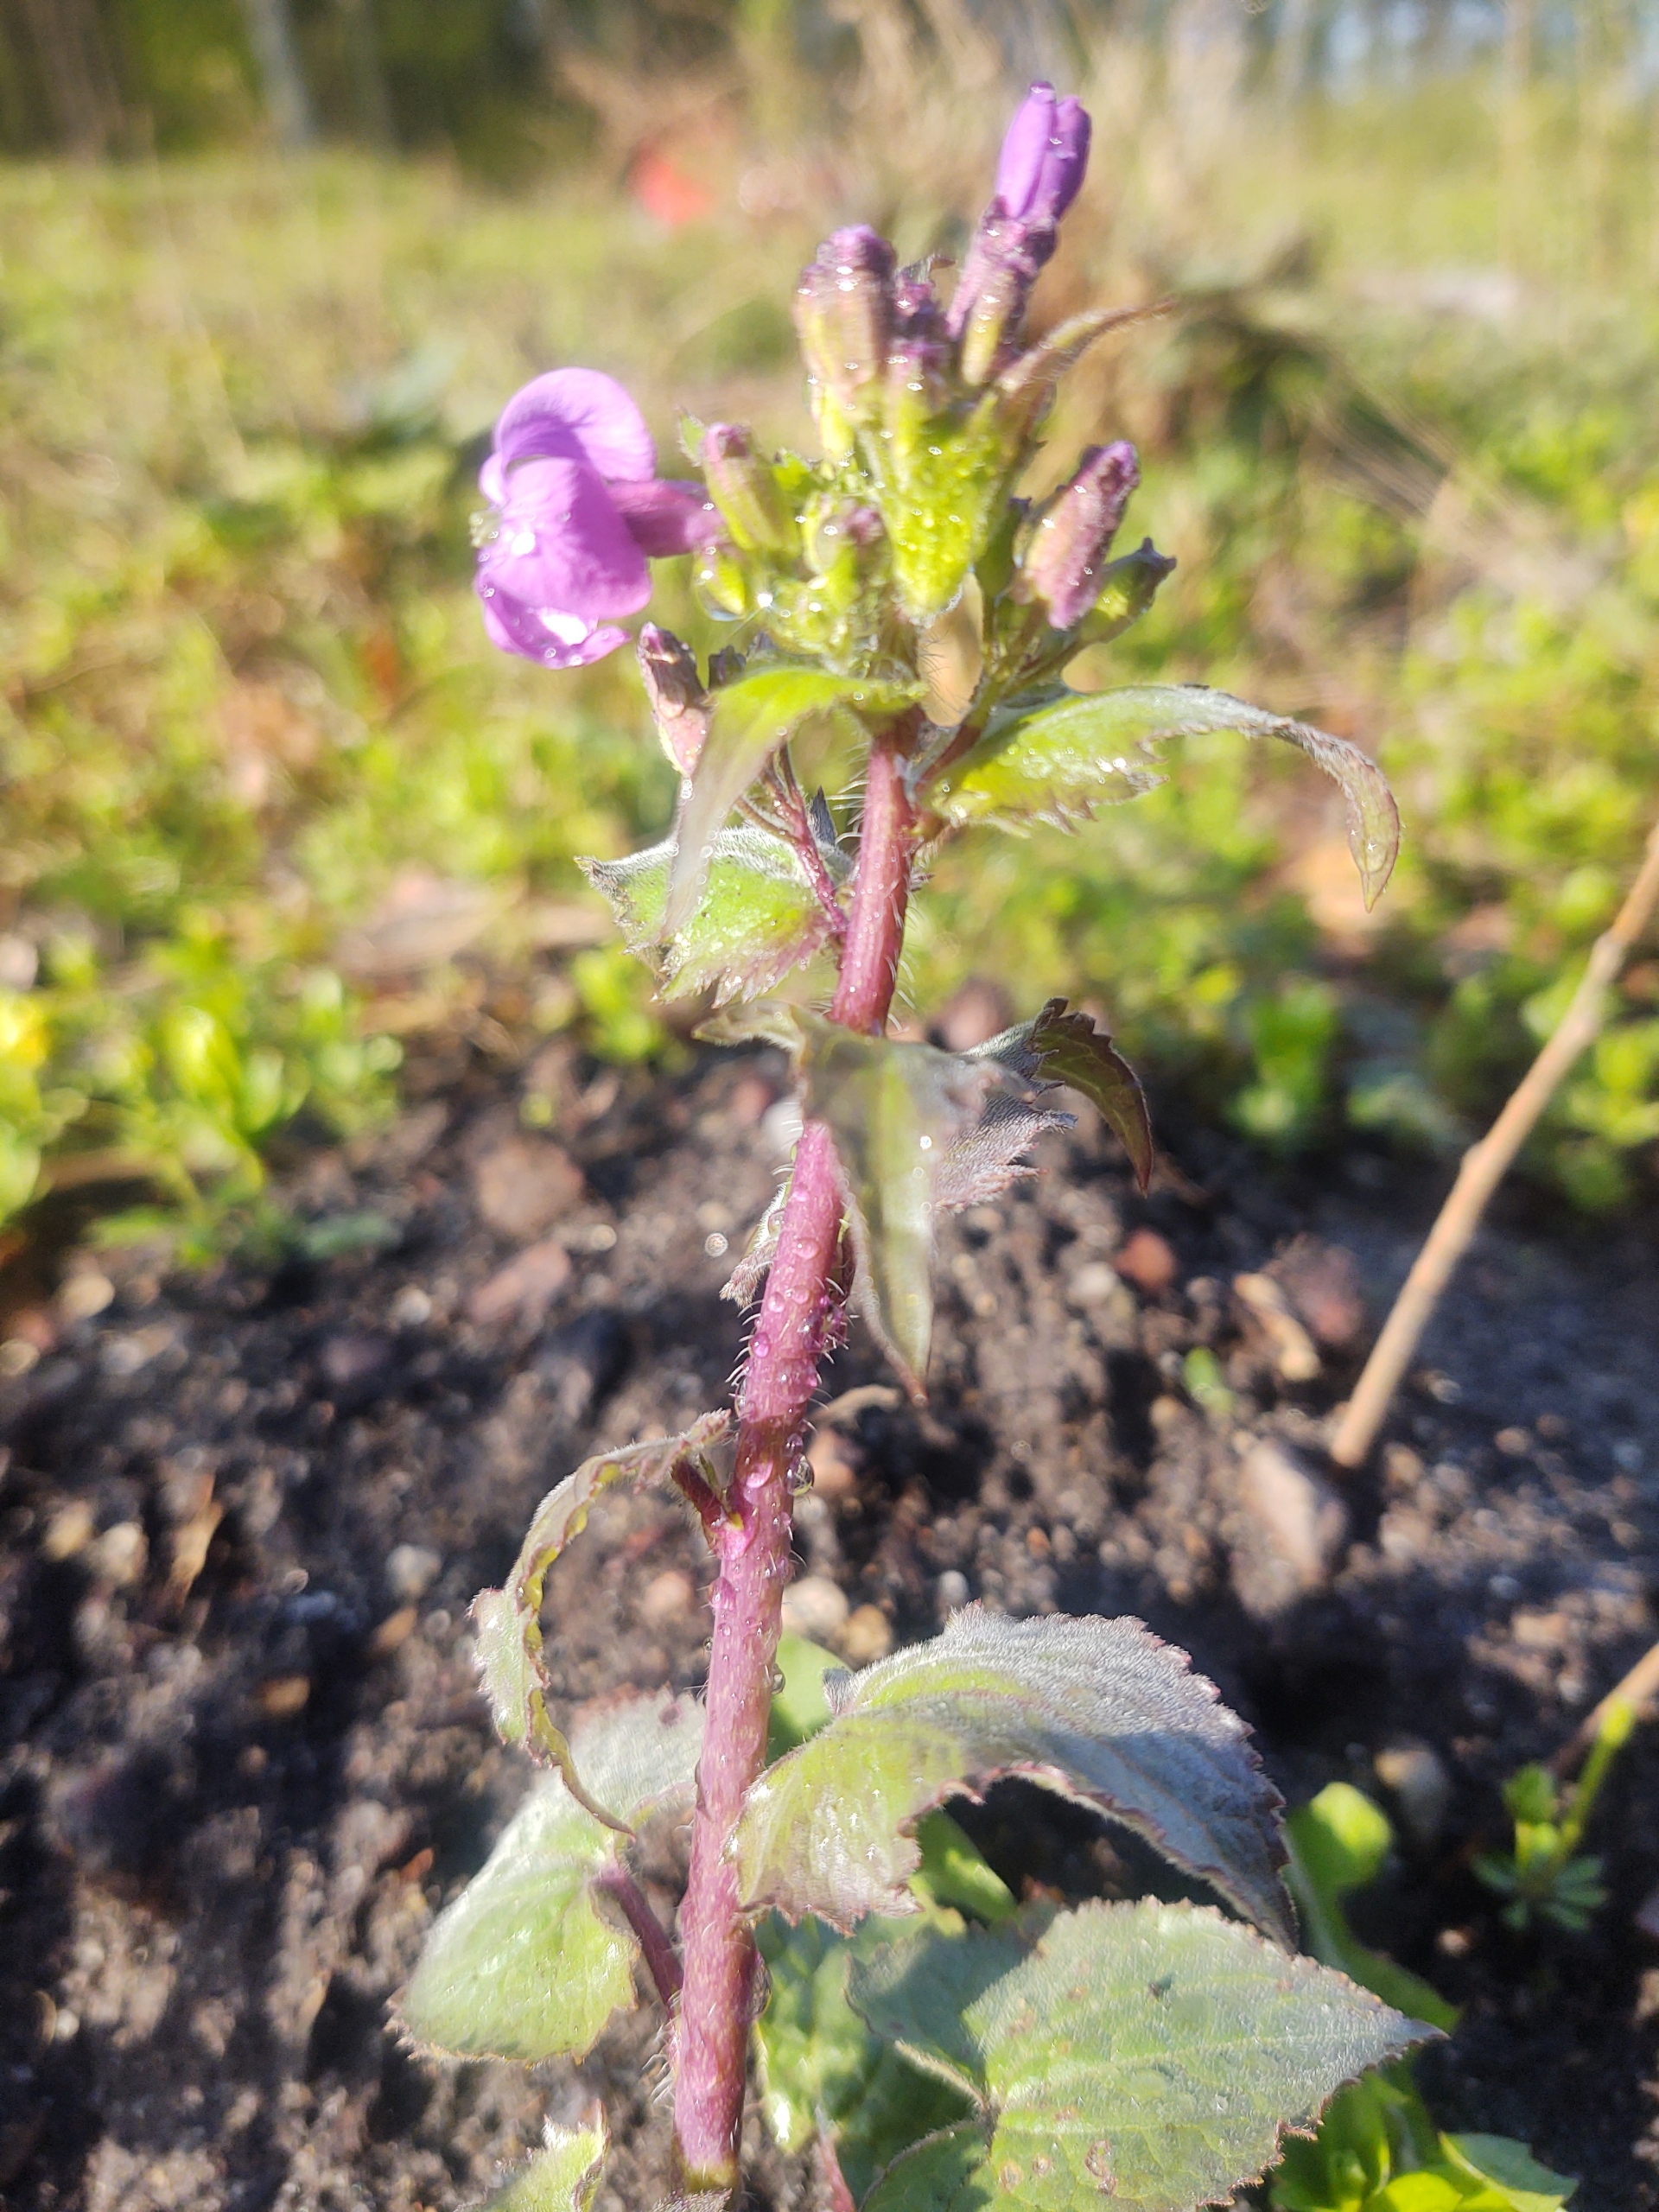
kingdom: Plantae
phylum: Tracheophyta
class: Magnoliopsida
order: Brassicales
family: Brassicaceae
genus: Lunaria
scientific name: Lunaria annua
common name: Judaspenge
